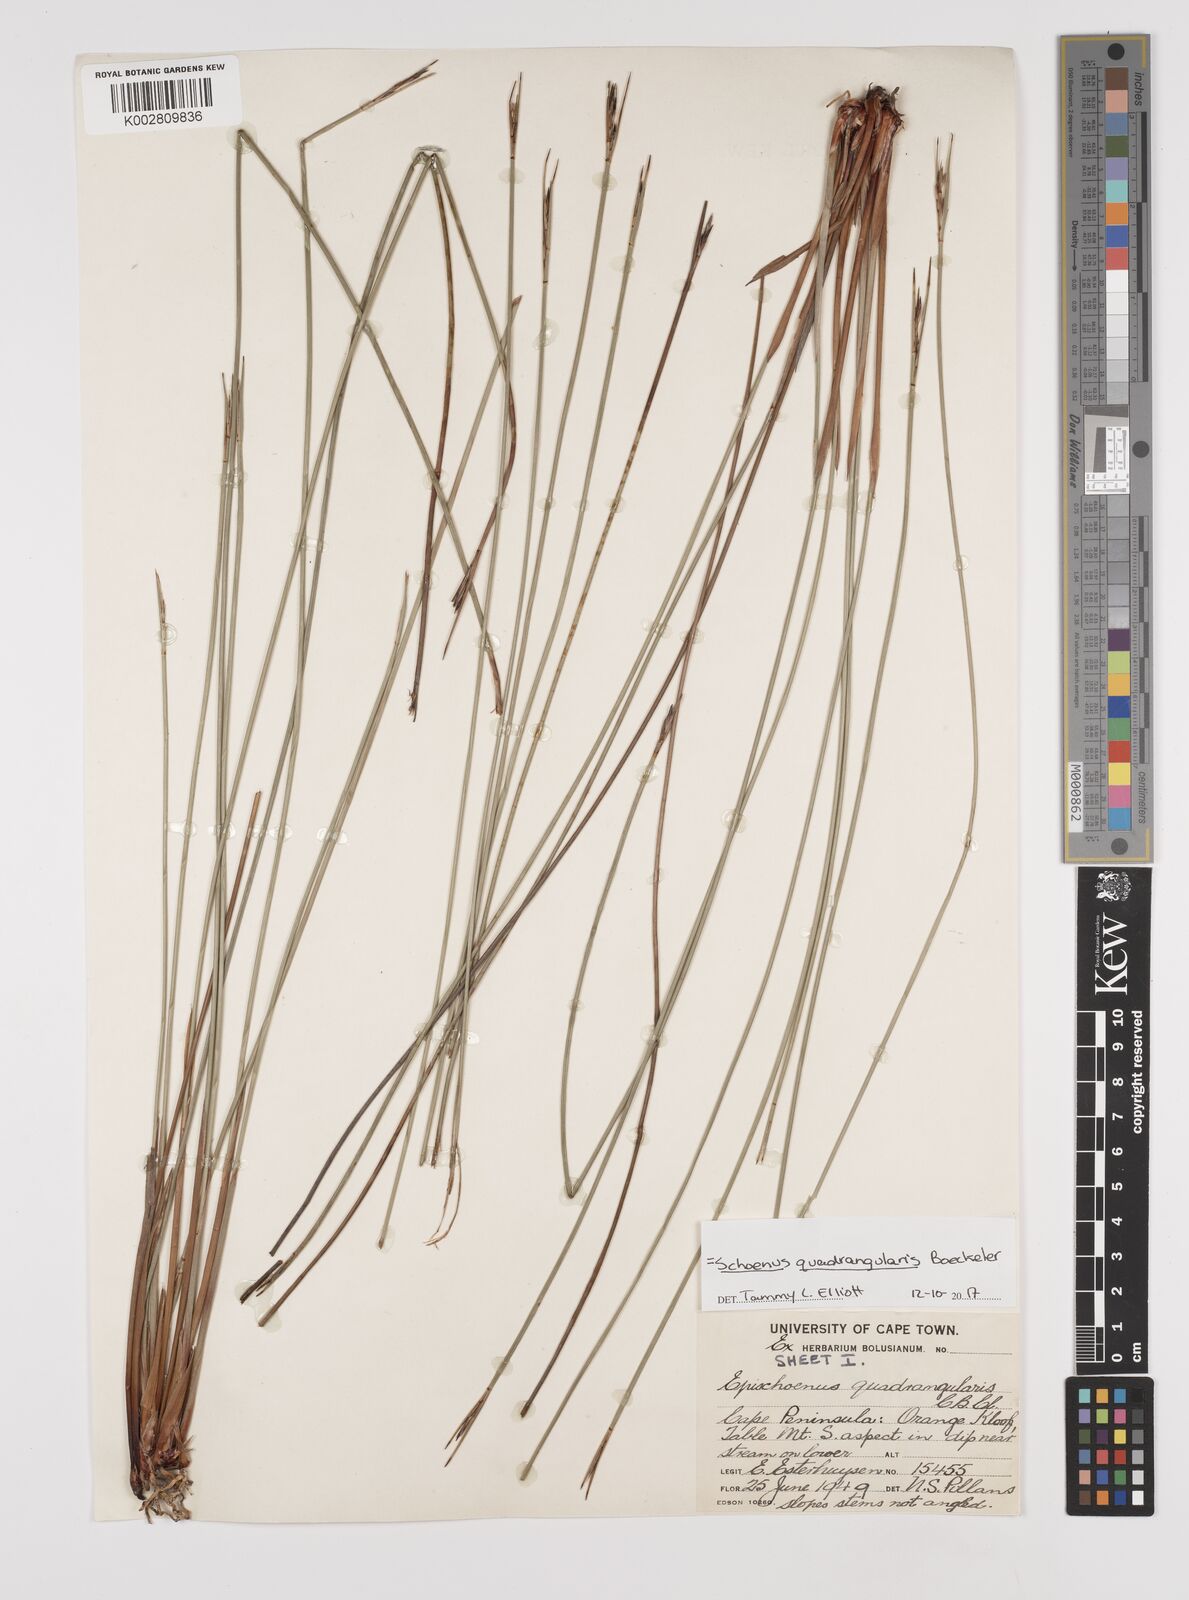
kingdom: Plantae
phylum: Tracheophyta
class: Liliopsida
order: Poales
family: Cyperaceae
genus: Schoenus
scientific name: Schoenus quadrangularis
